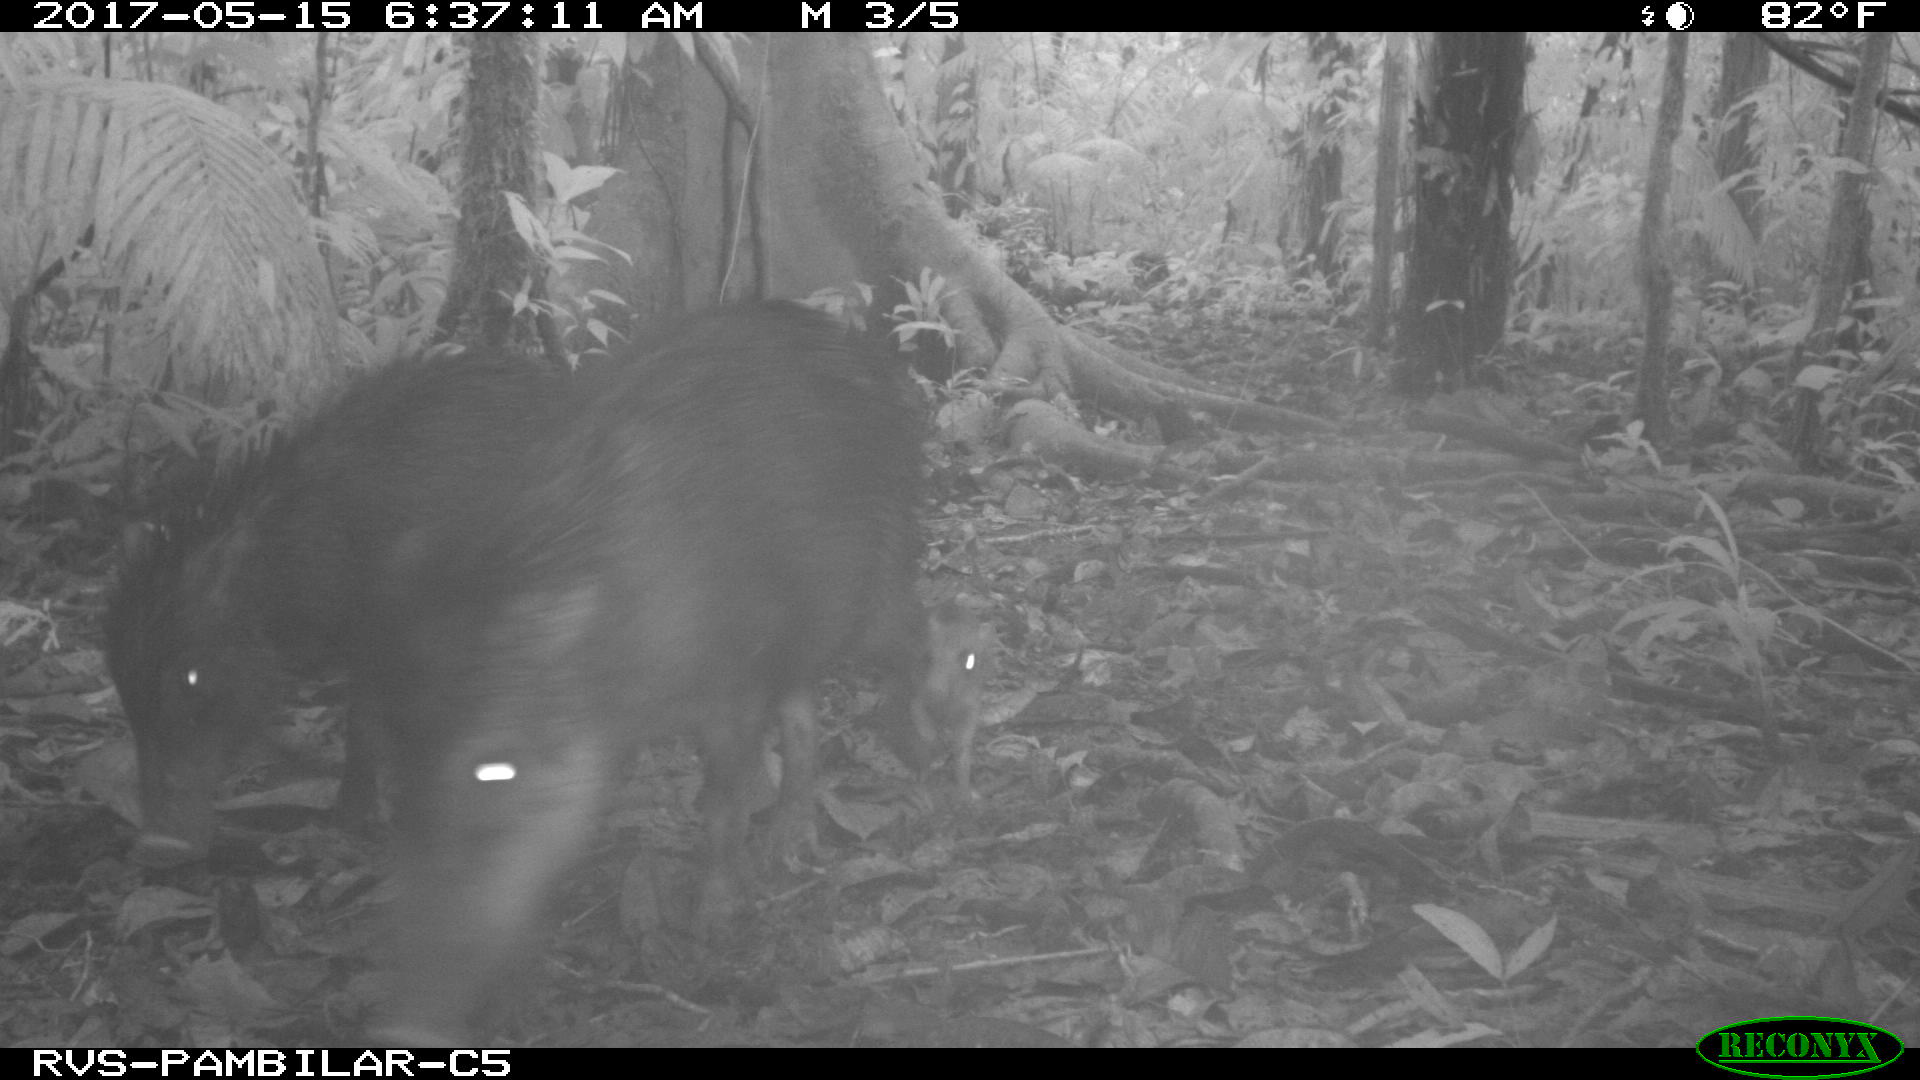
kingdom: Animalia
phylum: Chordata
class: Mammalia
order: Artiodactyla
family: Tayassuidae
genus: Tayassu
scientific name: Tayassu pecari
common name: White-lipped peccary
